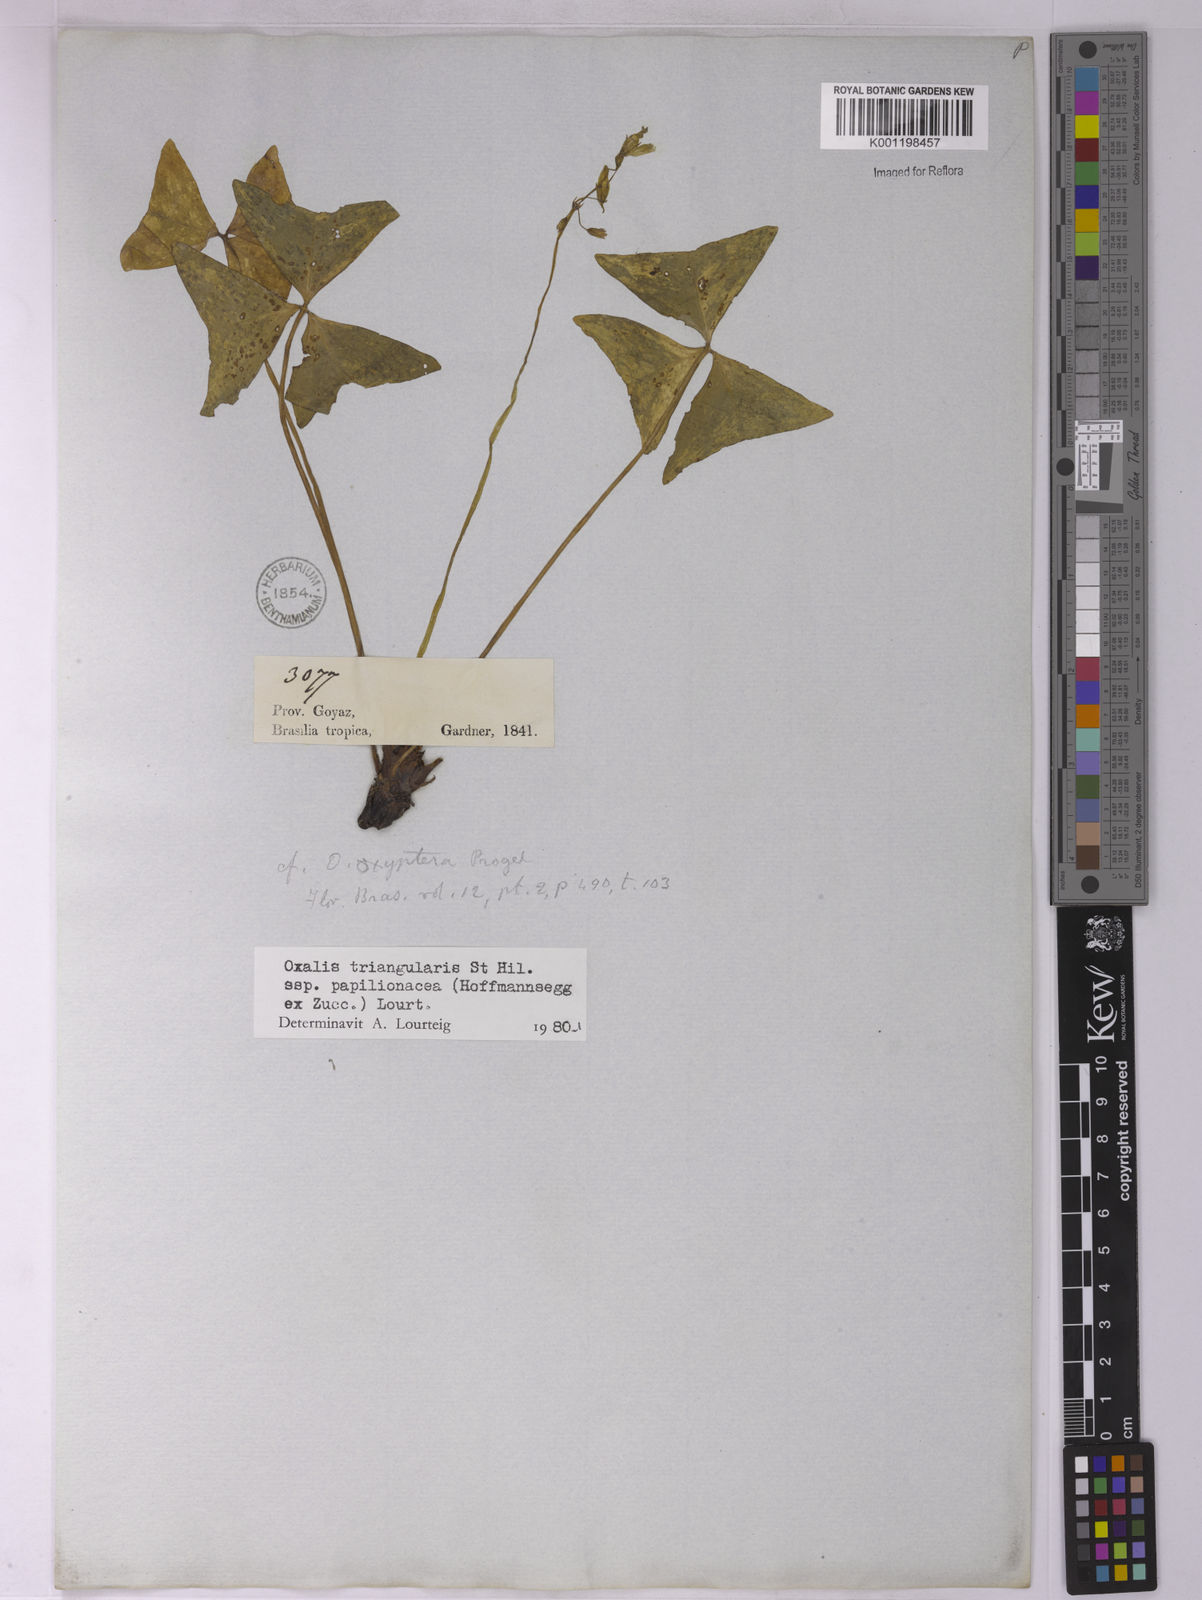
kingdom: Plantae
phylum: Tracheophyta
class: Magnoliopsida
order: Oxalidales
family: Oxalidaceae
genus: Oxalis
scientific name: Oxalis triangularis
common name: Wood sorrel
